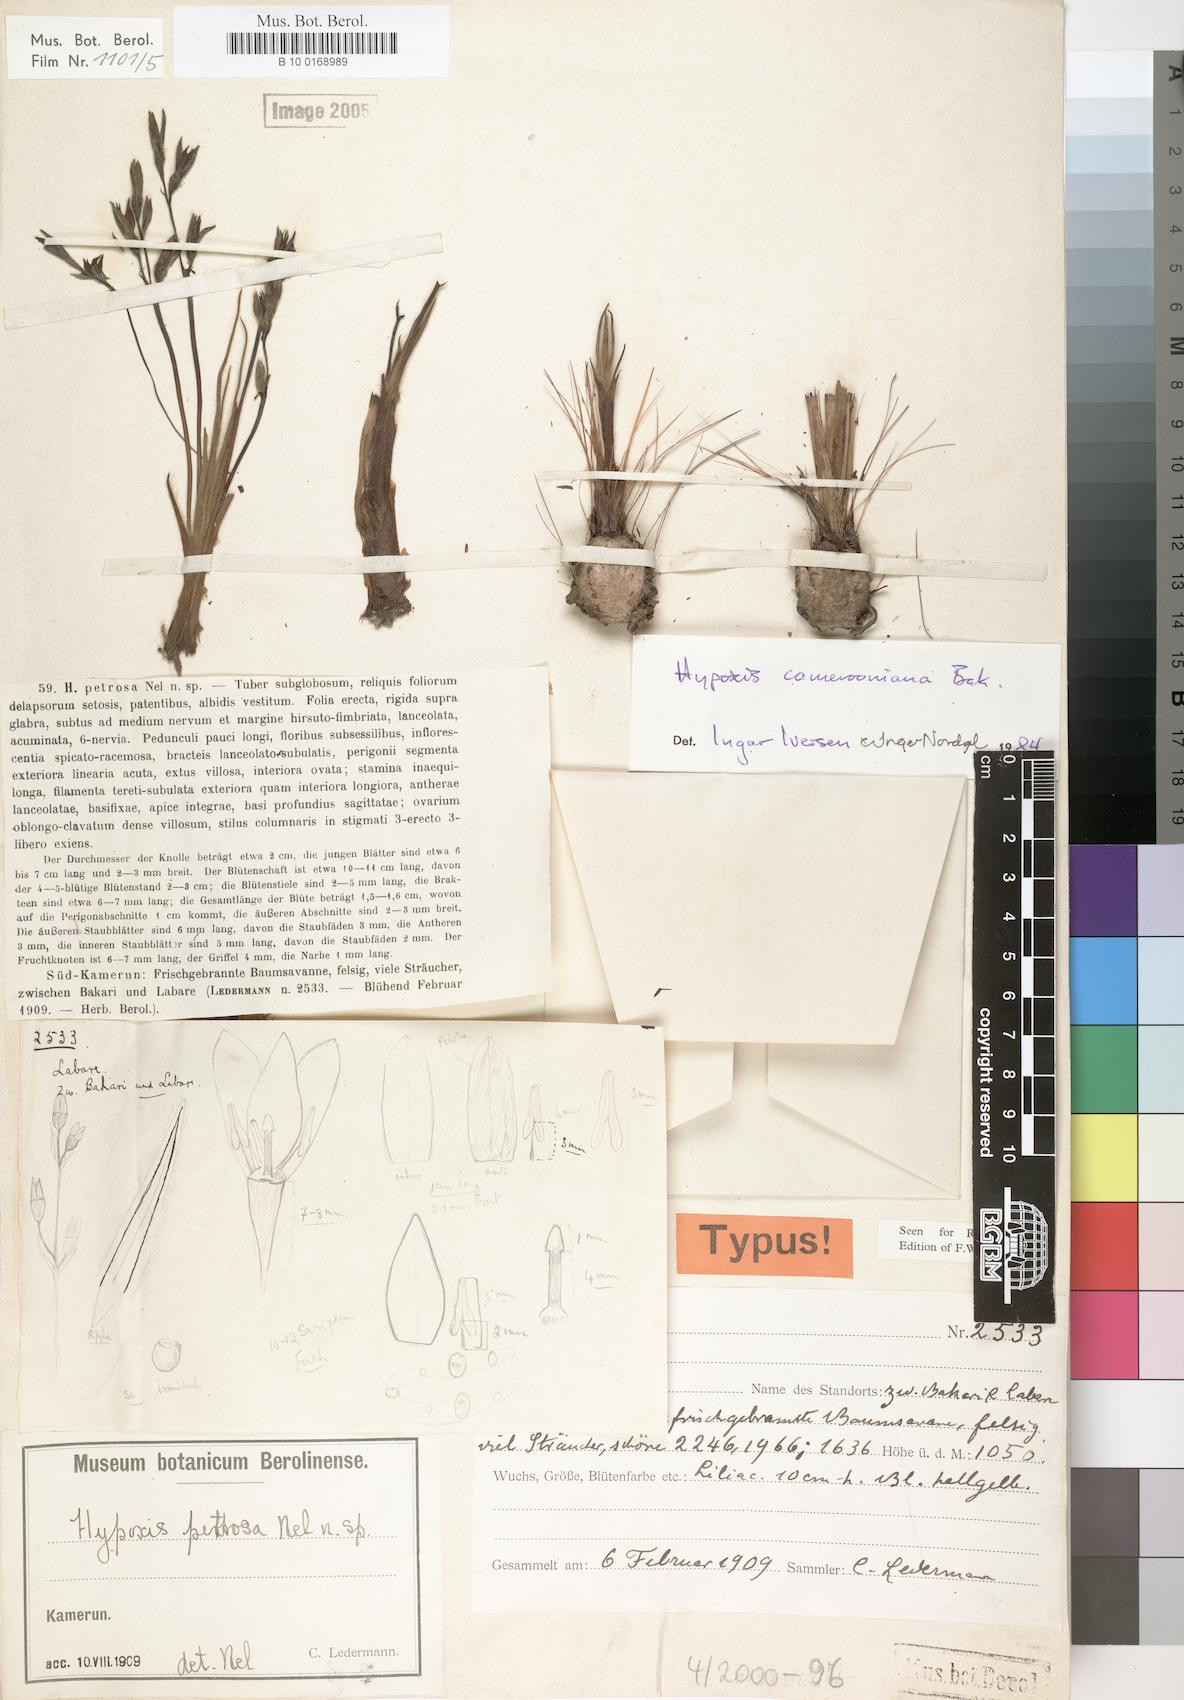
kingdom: Plantae
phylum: Tracheophyta
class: Liliopsida
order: Asparagales
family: Hypoxidaceae
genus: Hypoxis
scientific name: Hypoxis camerooniana
